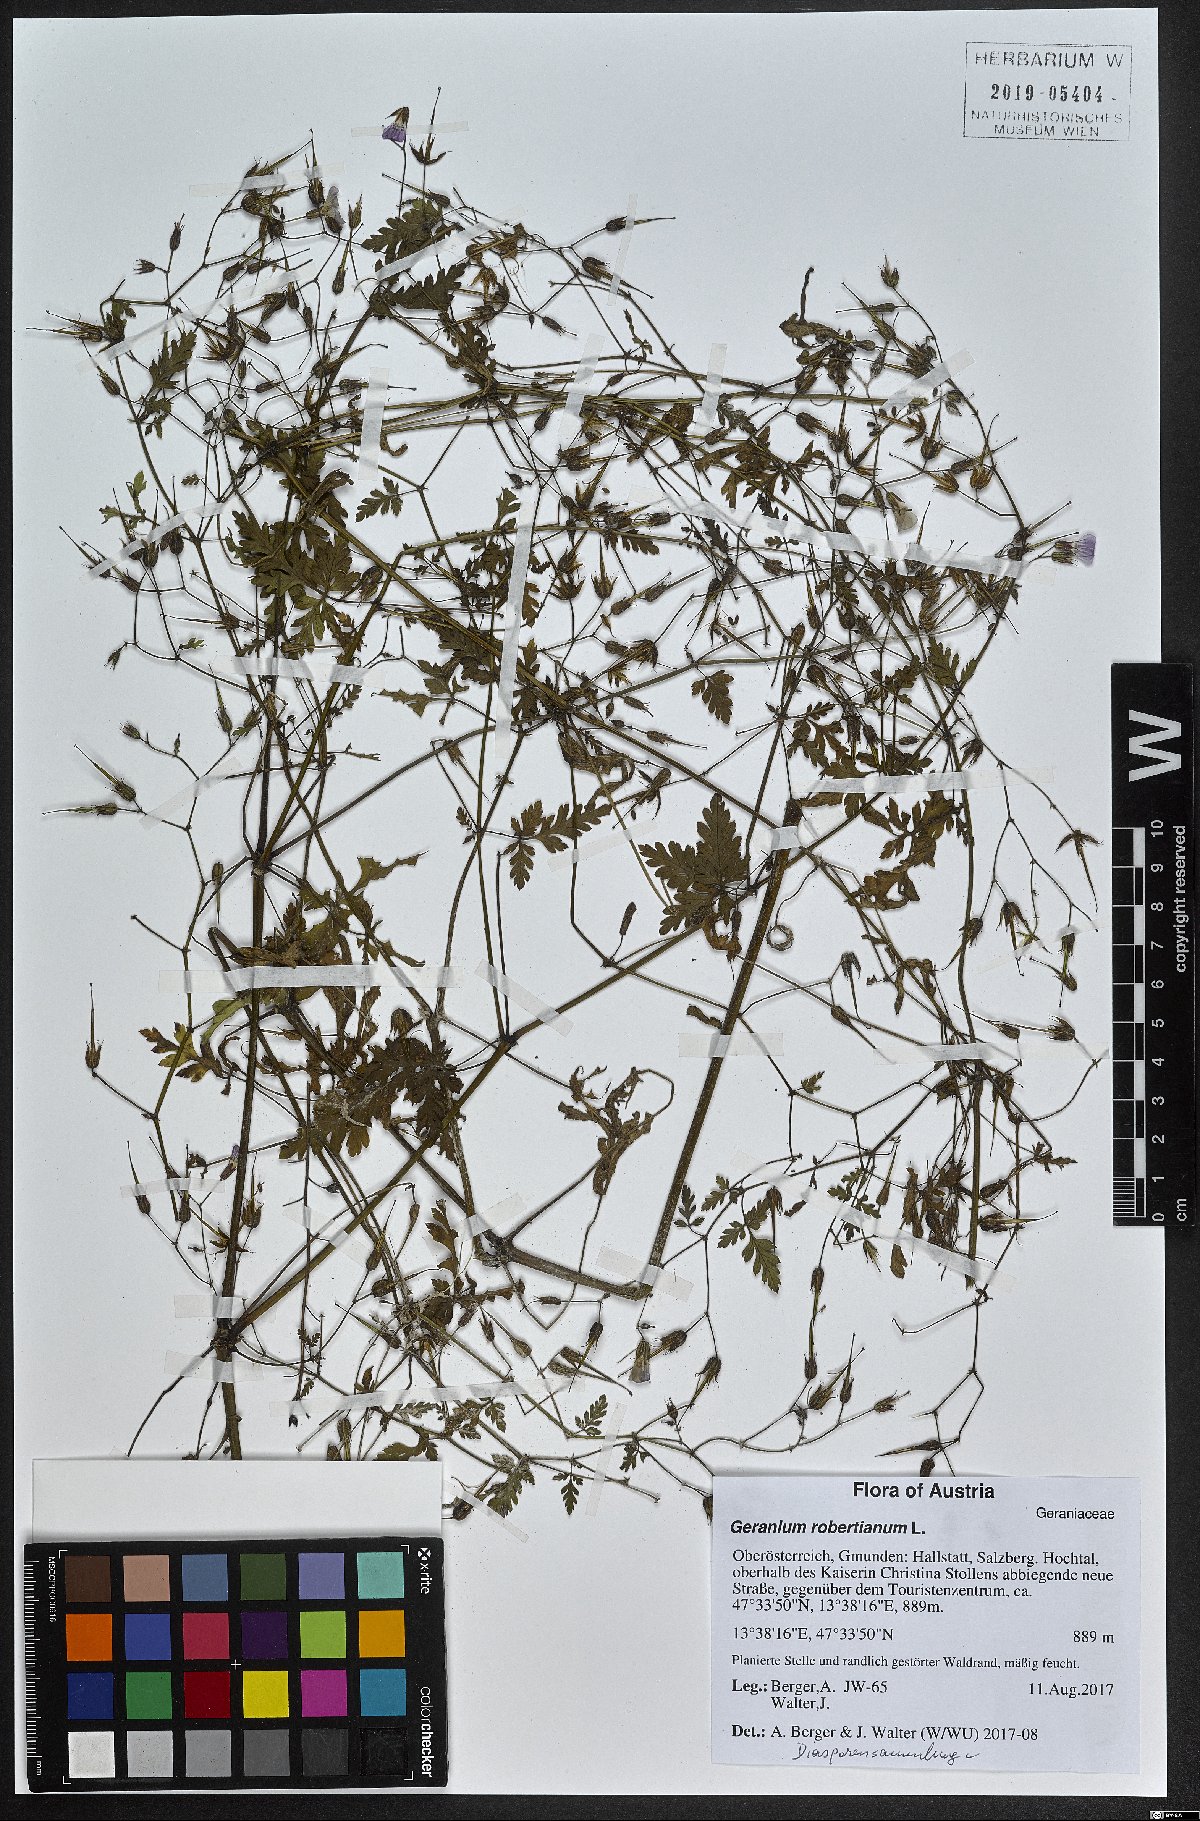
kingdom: Plantae
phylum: Tracheophyta
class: Magnoliopsida
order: Geraniales
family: Geraniaceae
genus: Geranium
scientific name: Geranium robertianum
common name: Herb-robert
